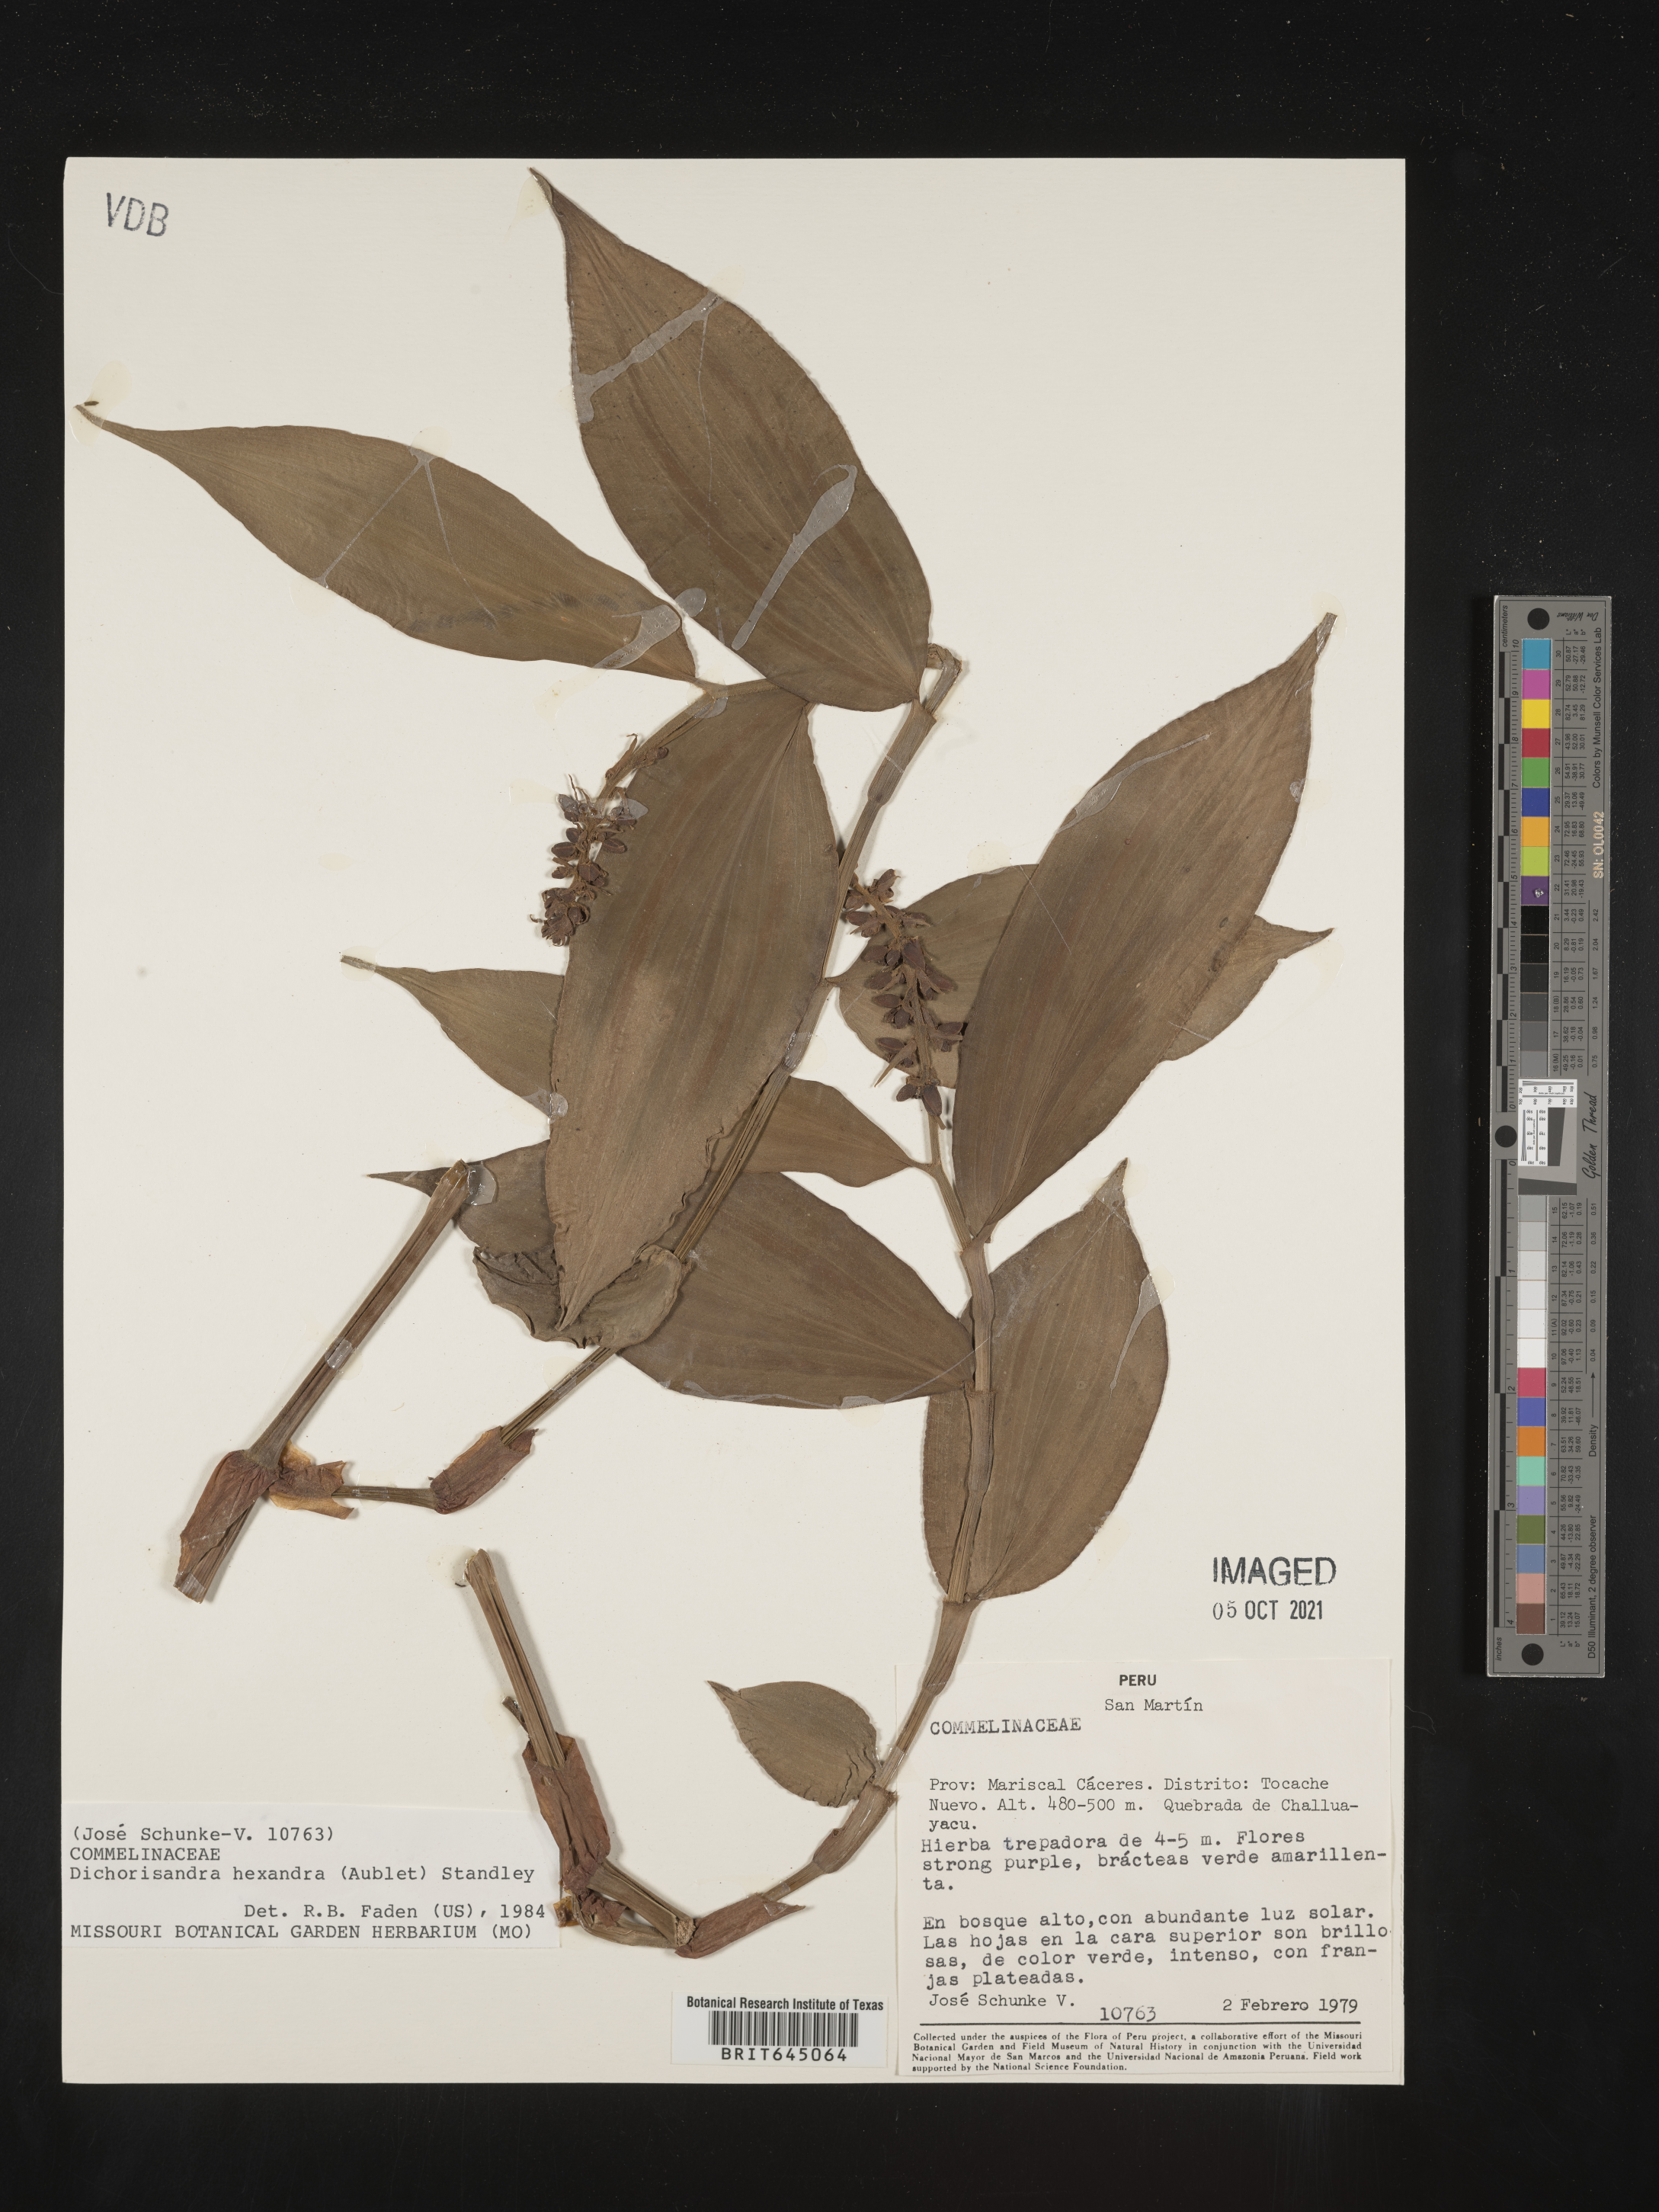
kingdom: Plantae
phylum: Tracheophyta
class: Liliopsida
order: Commelinales
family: Commelinaceae
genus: Dichorisandra
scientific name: Dichorisandra hexandra
